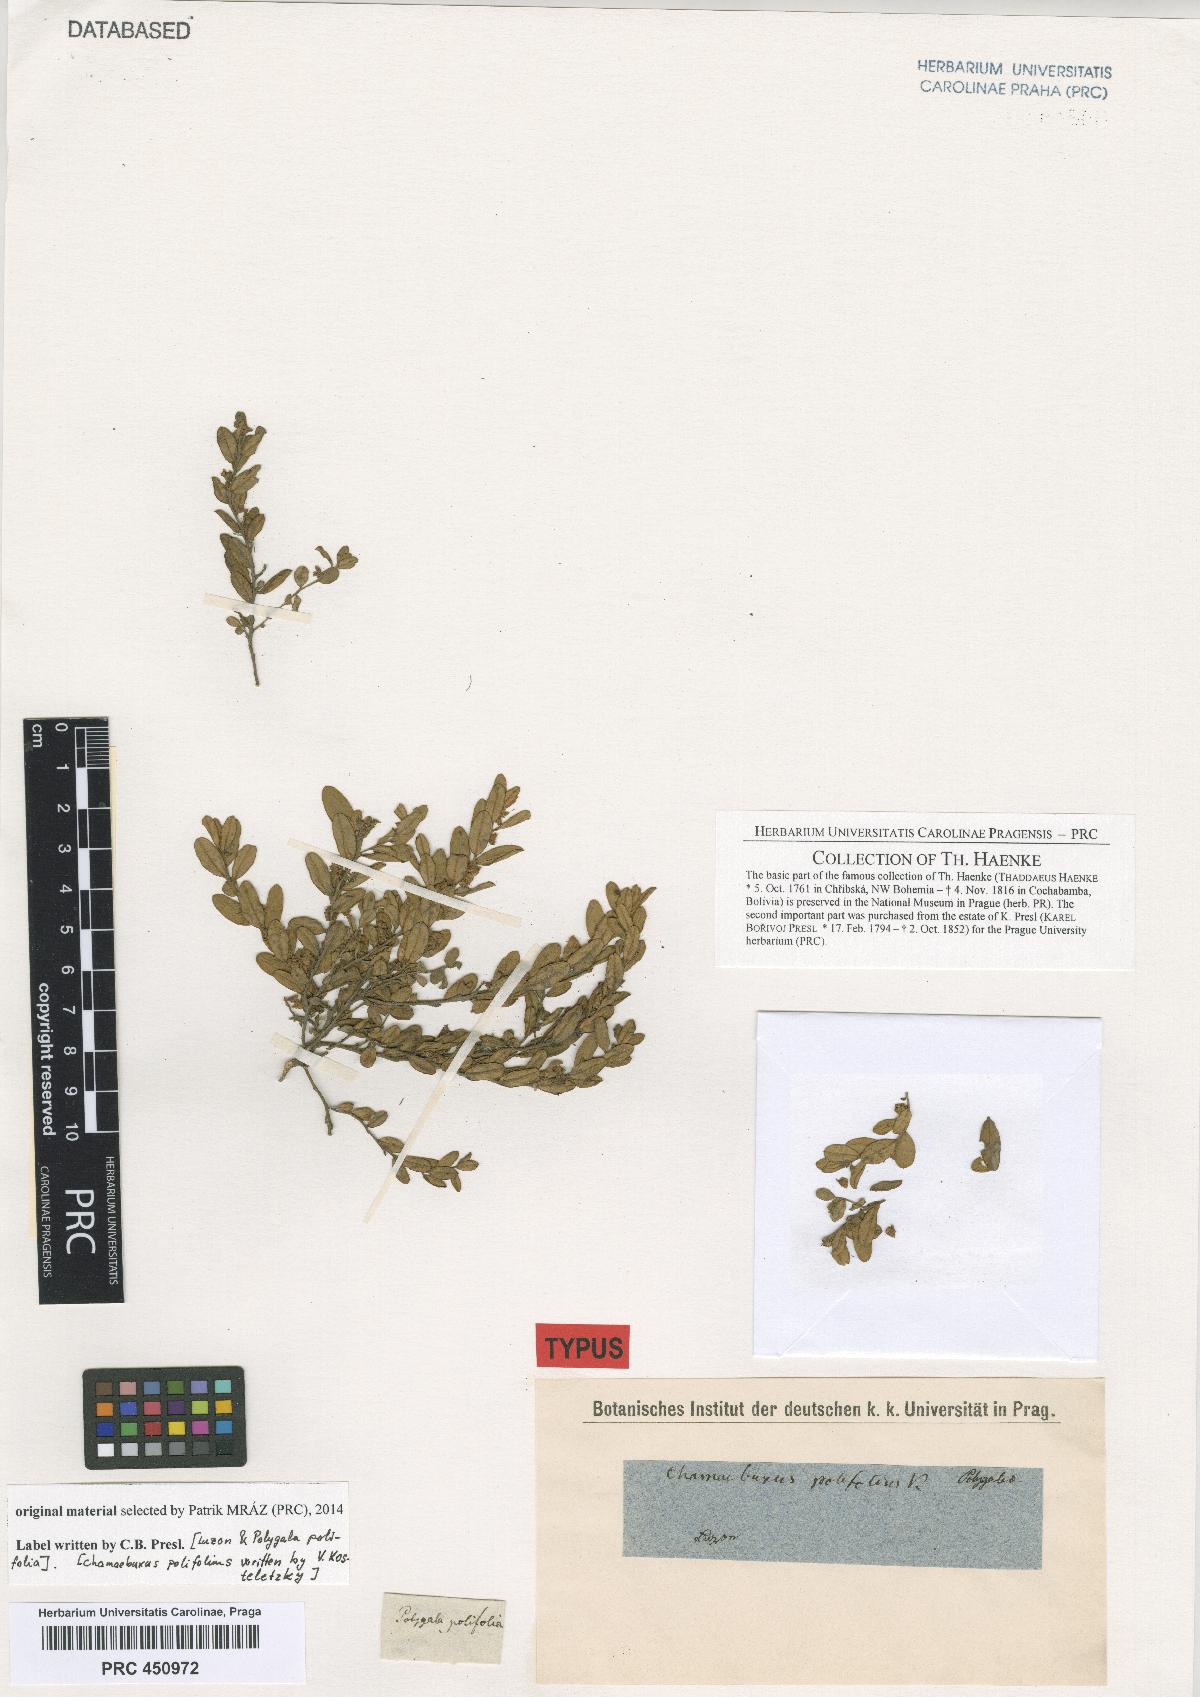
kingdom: Plantae
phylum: Tracheophyta
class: Magnoliopsida
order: Fabales
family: Polygalaceae
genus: Polygala
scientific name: Polygala arvensis
